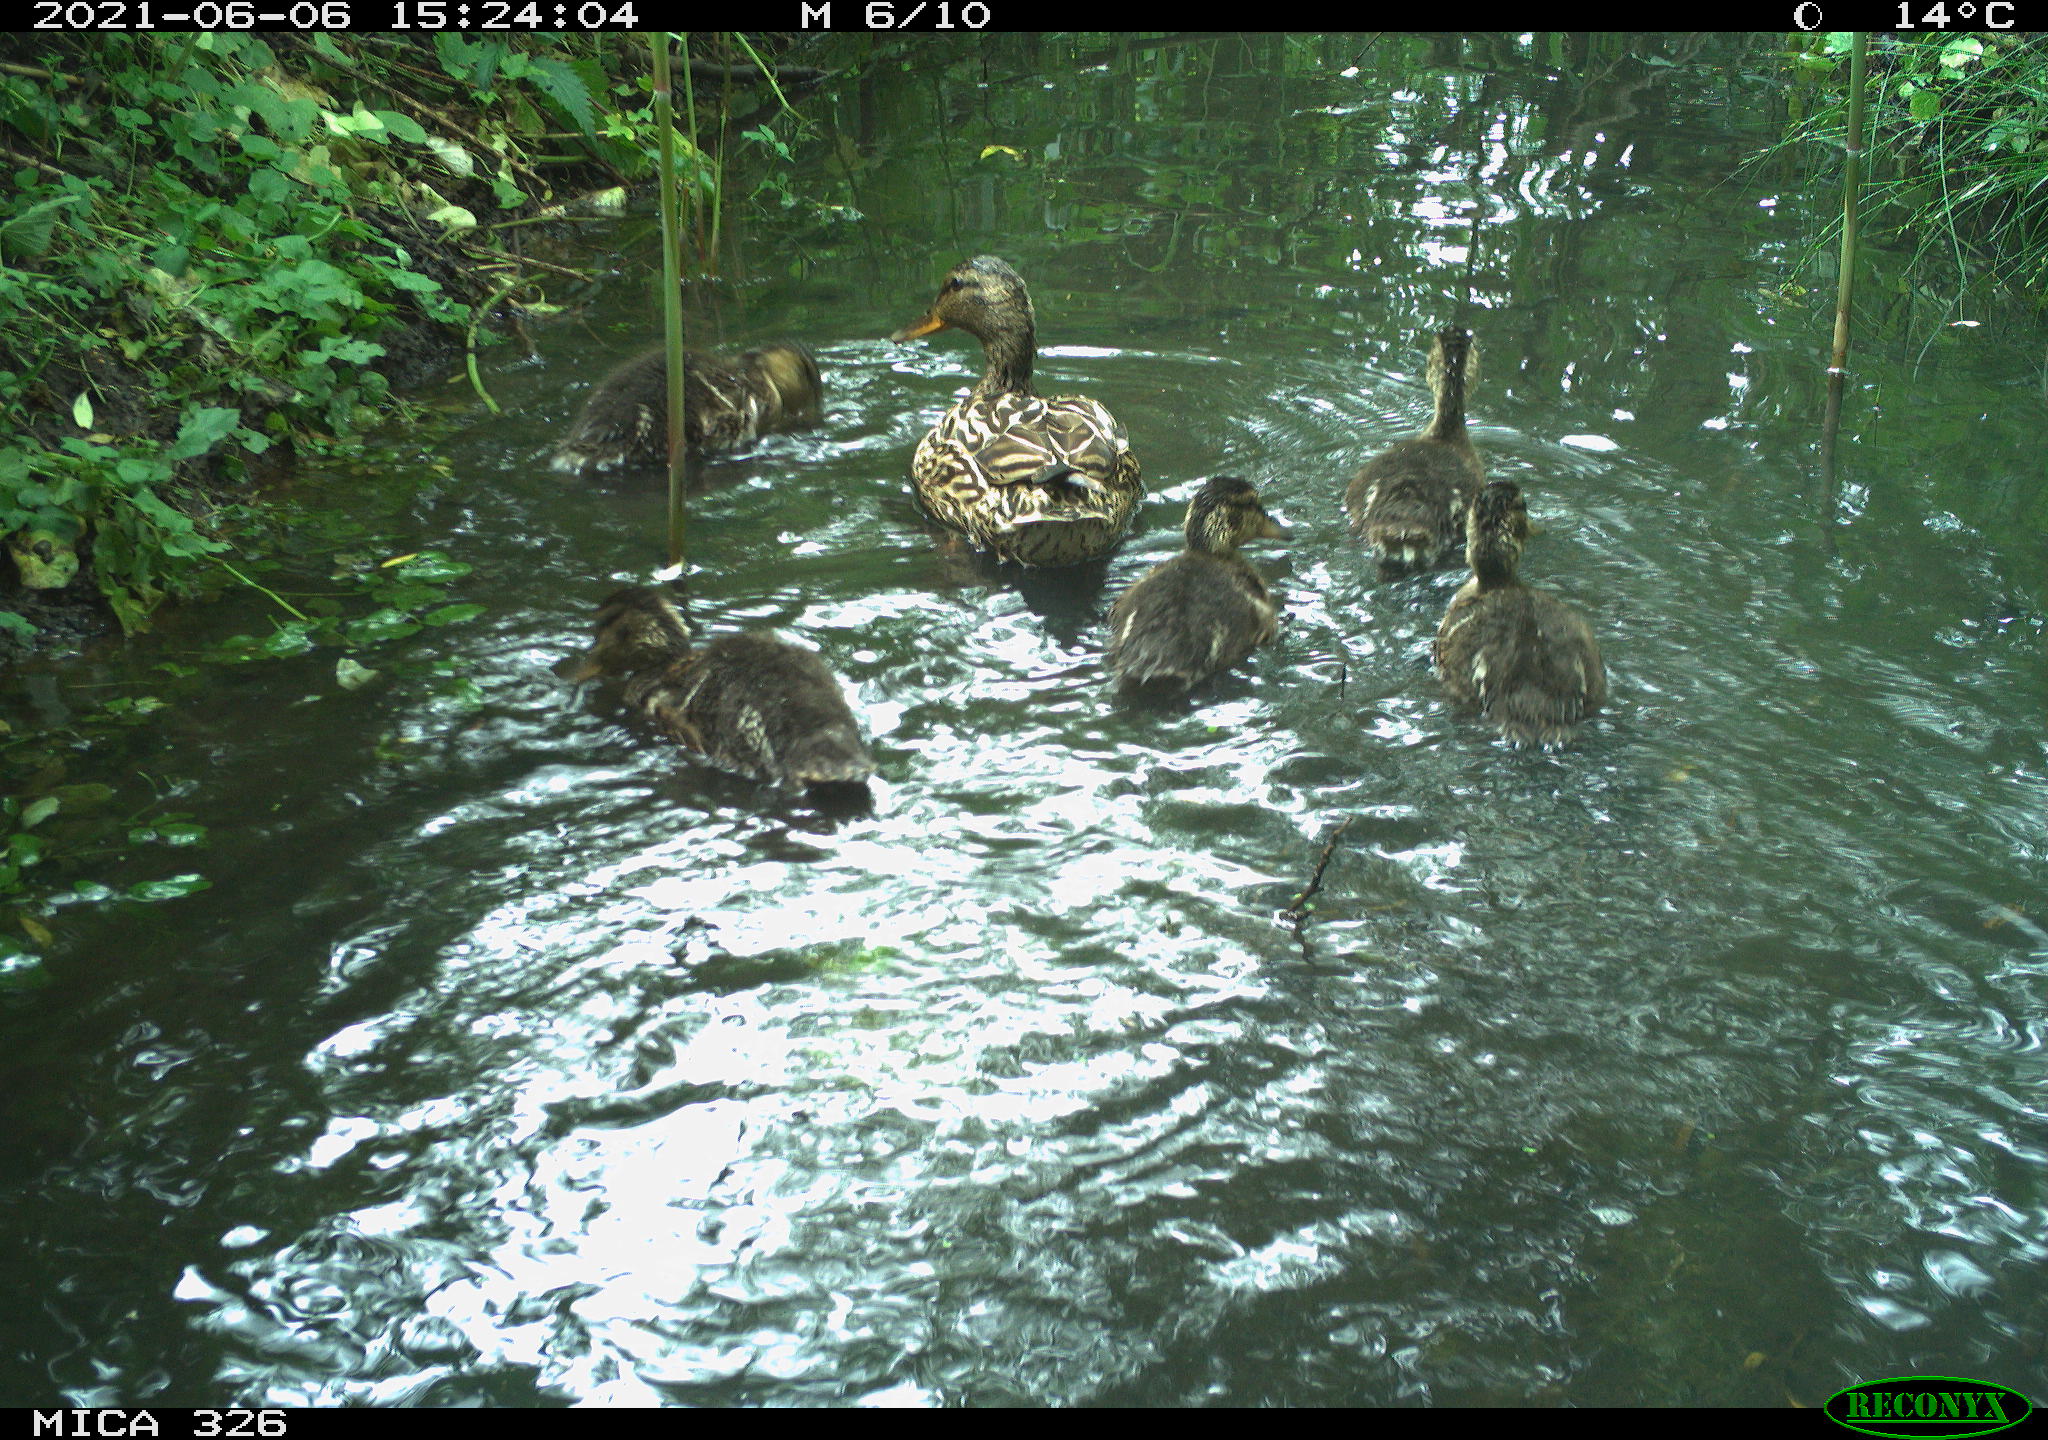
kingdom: Animalia
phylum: Chordata
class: Aves
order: Anseriformes
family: Anatidae
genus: Anas
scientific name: Anas platyrhynchos
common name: Mallard
